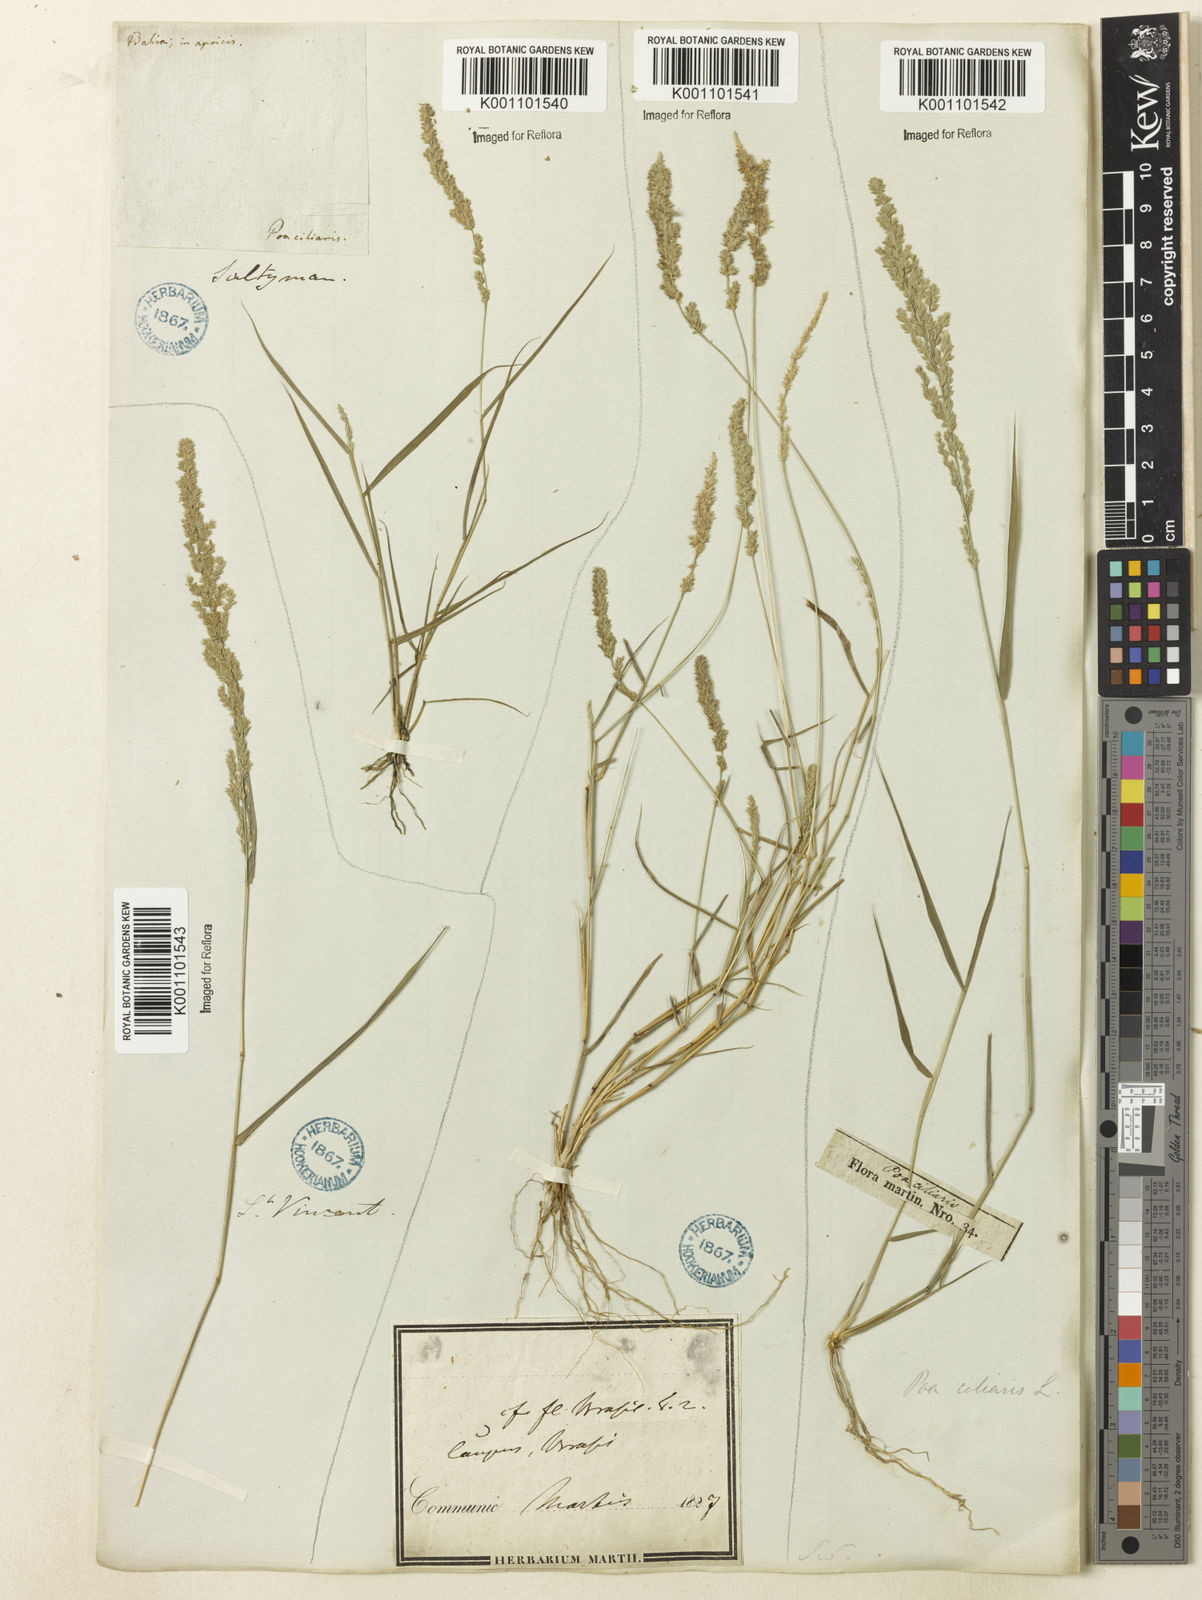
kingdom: Plantae
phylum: Tracheophyta
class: Liliopsida
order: Poales
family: Poaceae
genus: Eragrostis
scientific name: Eragrostis ciliaris
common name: Gophertail lovegrass
